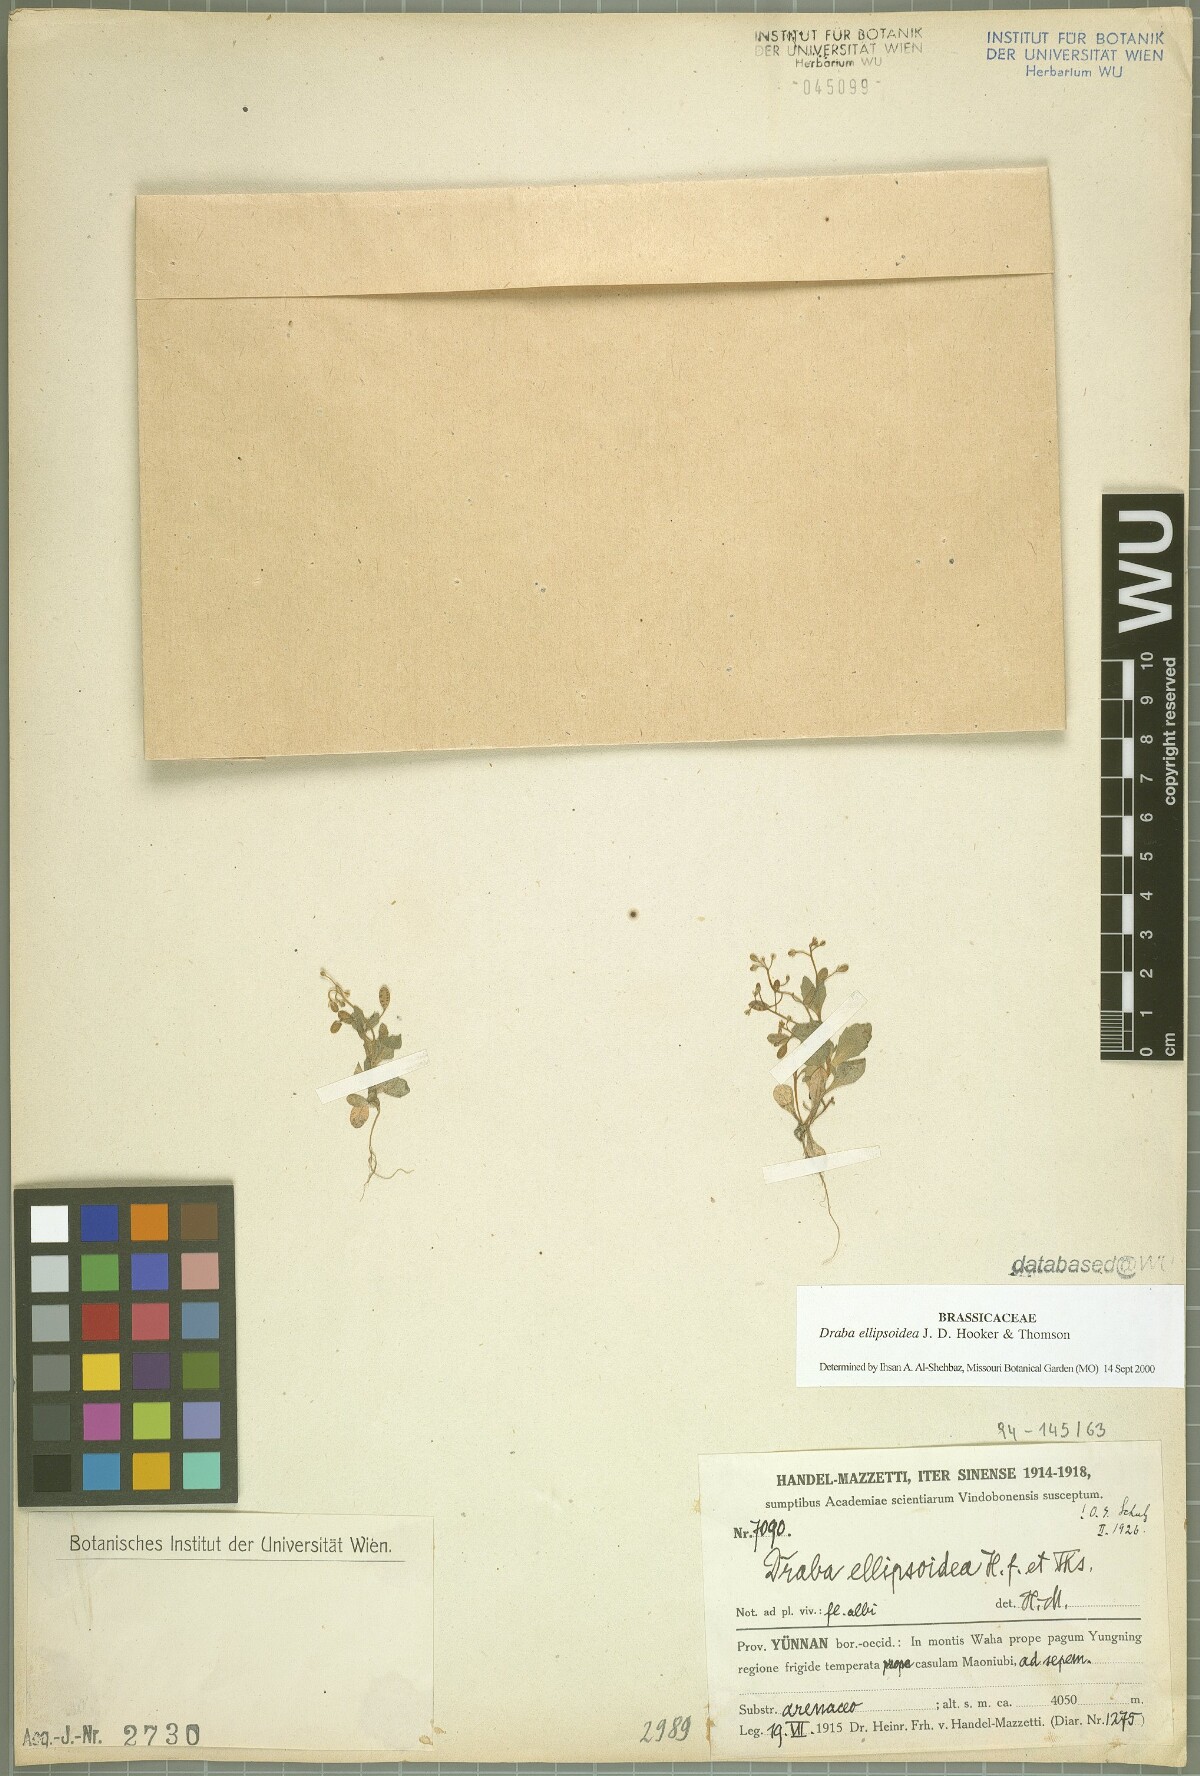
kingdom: Plantae
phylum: Tracheophyta
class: Magnoliopsida
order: Brassicales
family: Brassicaceae
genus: Draba
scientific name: Draba ellipsoidea
